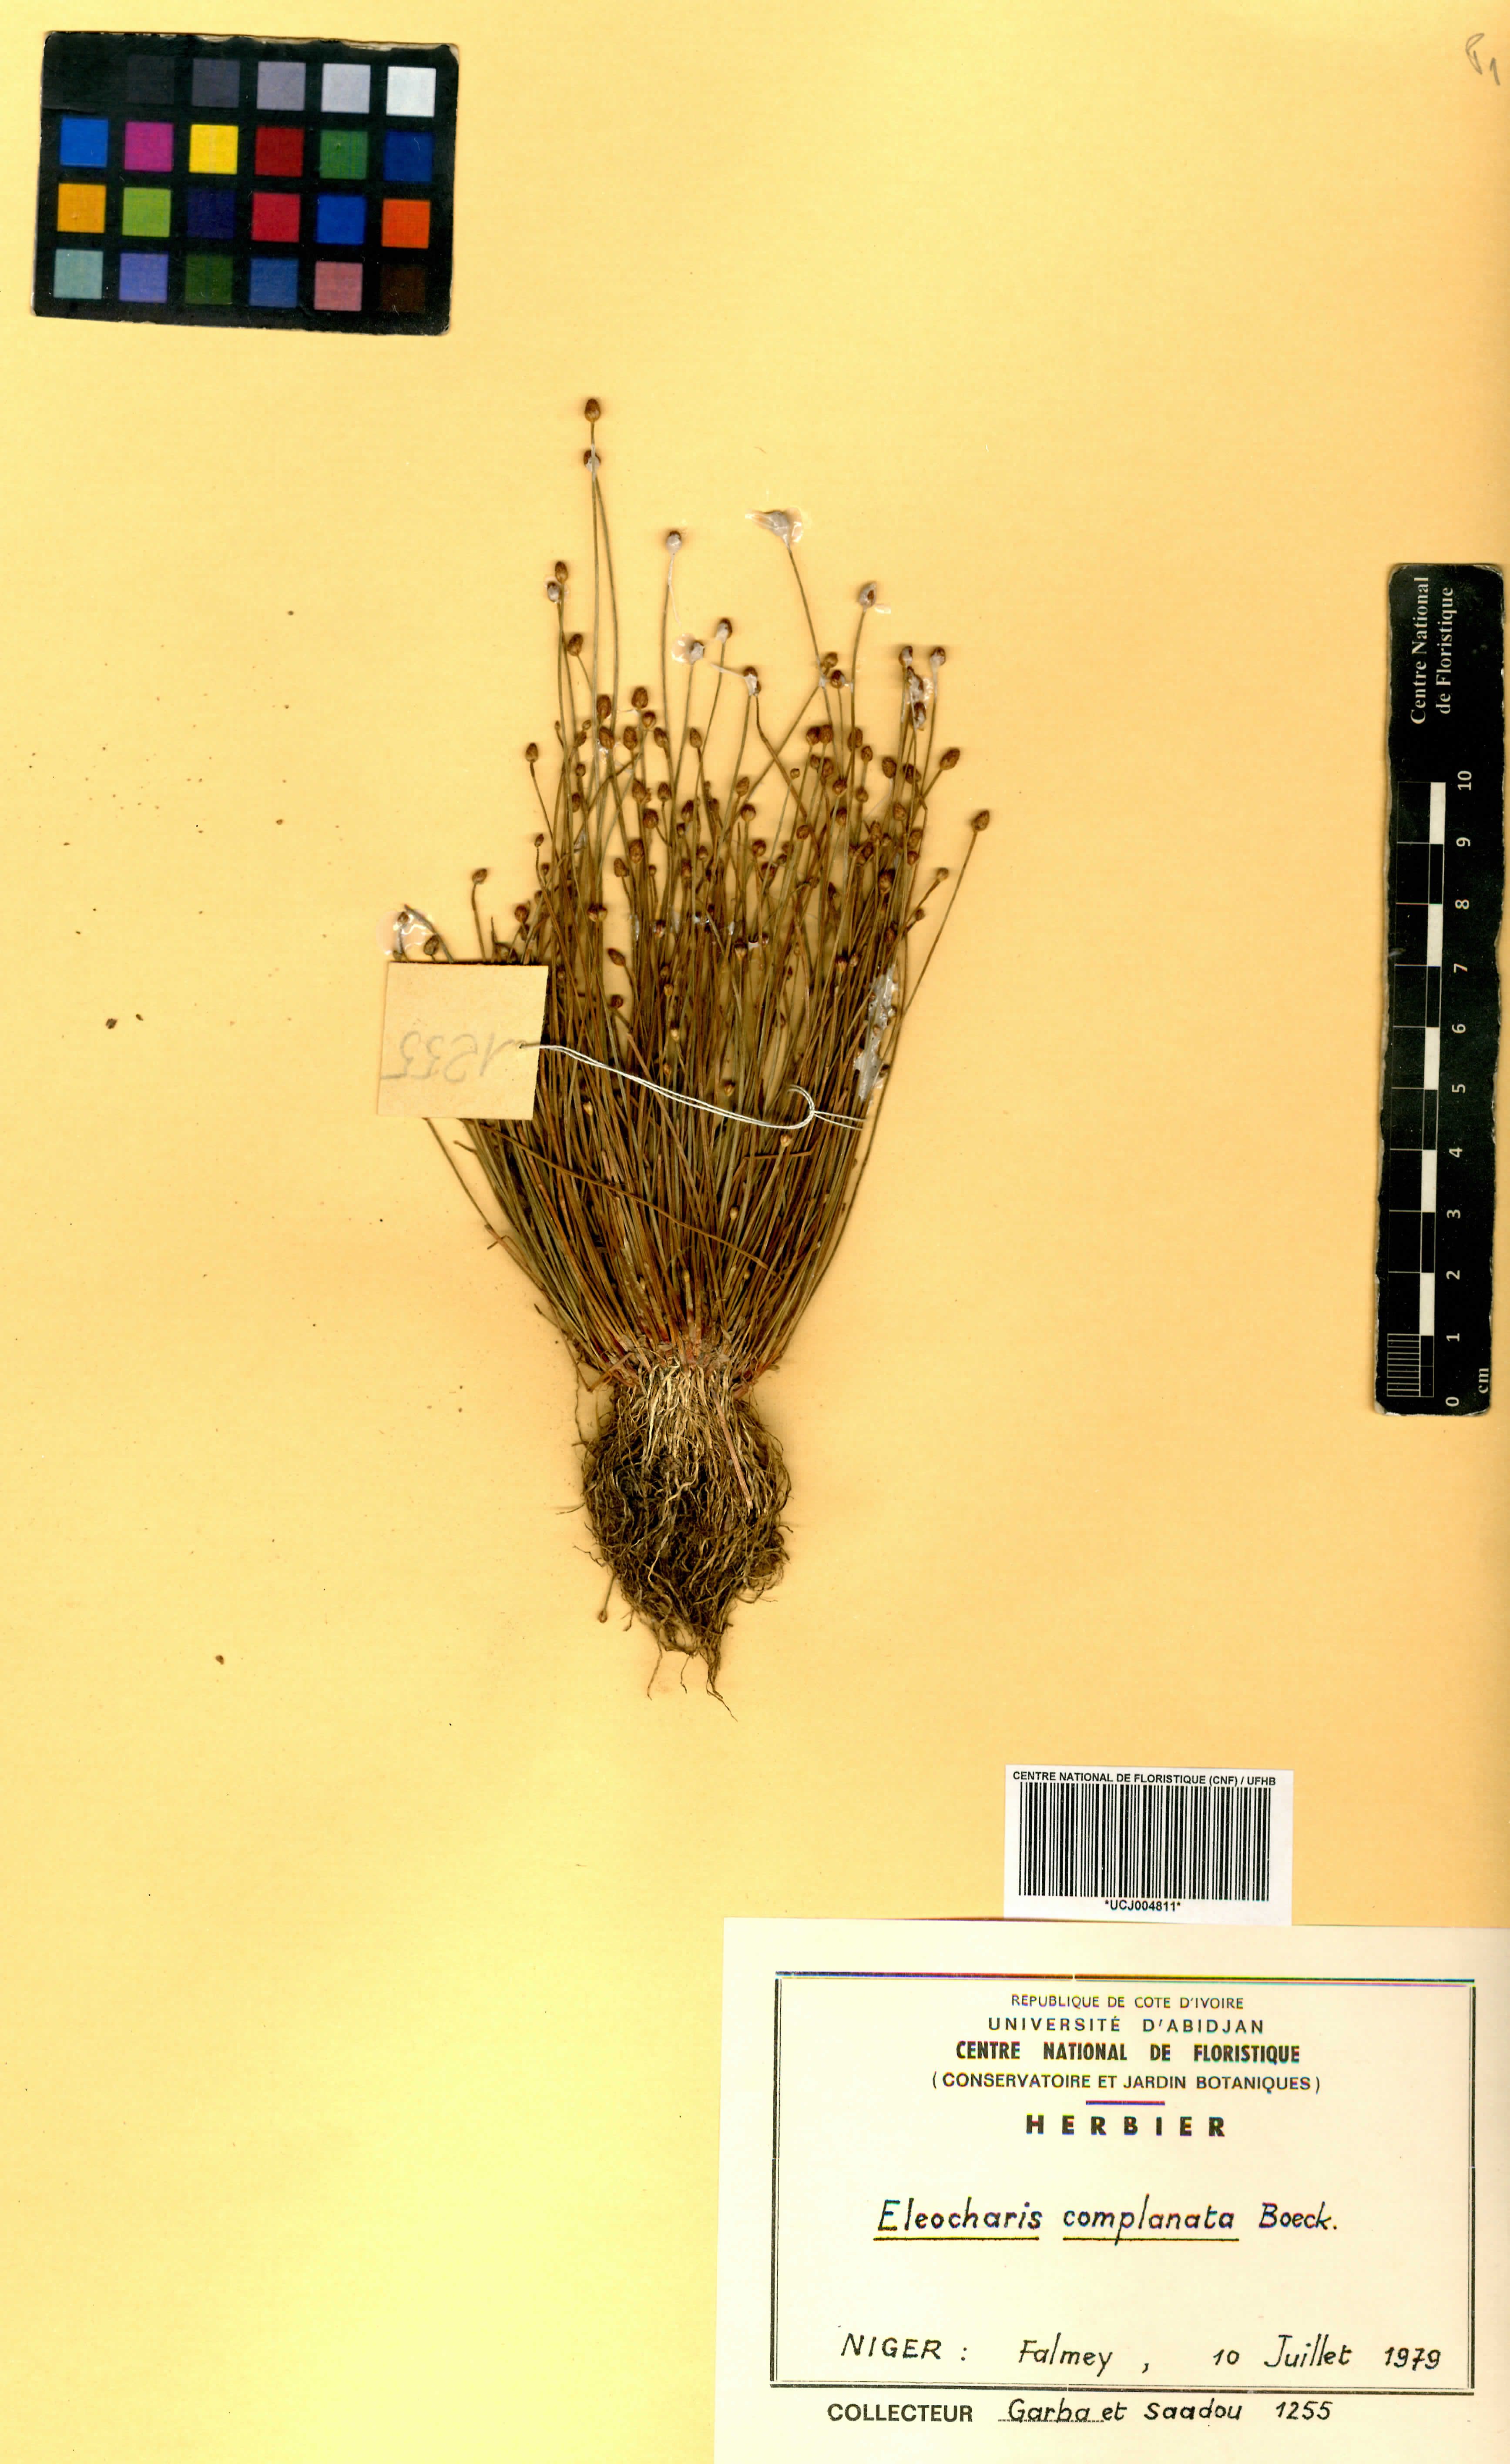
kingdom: Plantae
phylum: Tracheophyta
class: Liliopsida
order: Poales
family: Cyperaceae
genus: Eleocharis
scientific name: Eleocharis complanata
